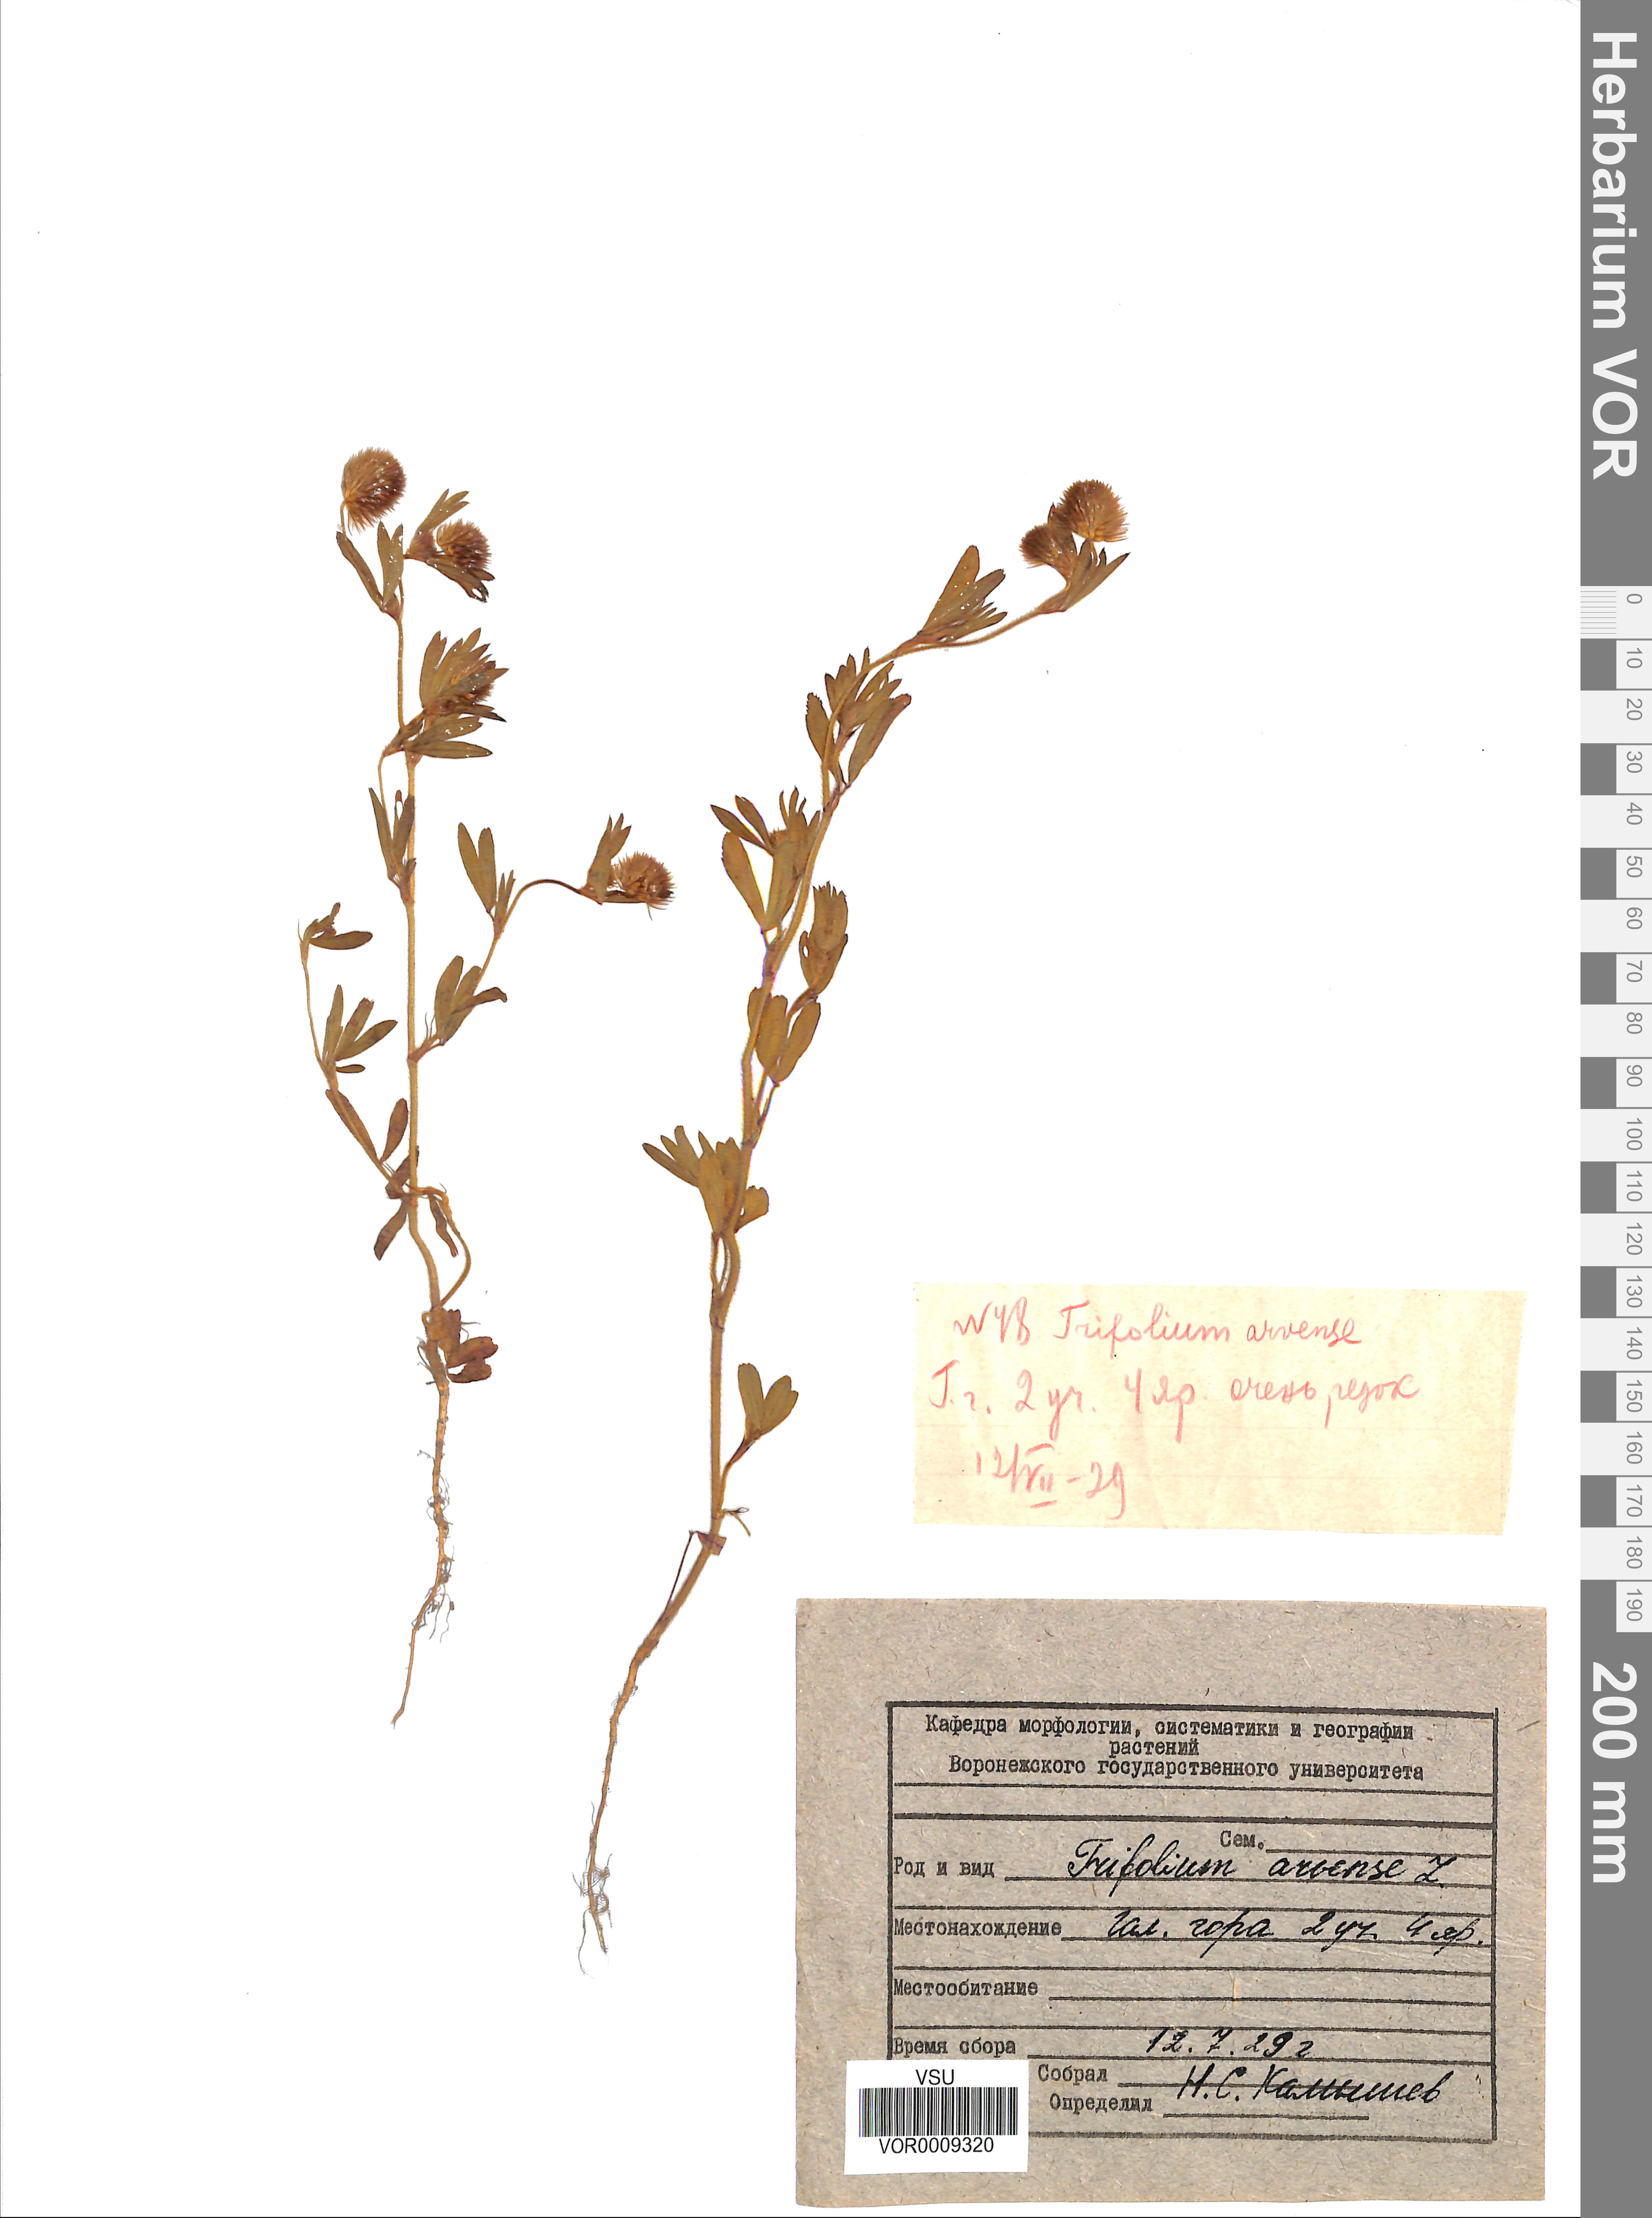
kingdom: Plantae
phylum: Tracheophyta
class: Magnoliopsida
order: Fabales
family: Fabaceae
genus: Trifolium
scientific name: Trifolium arvense
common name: Hare's-foot clover
